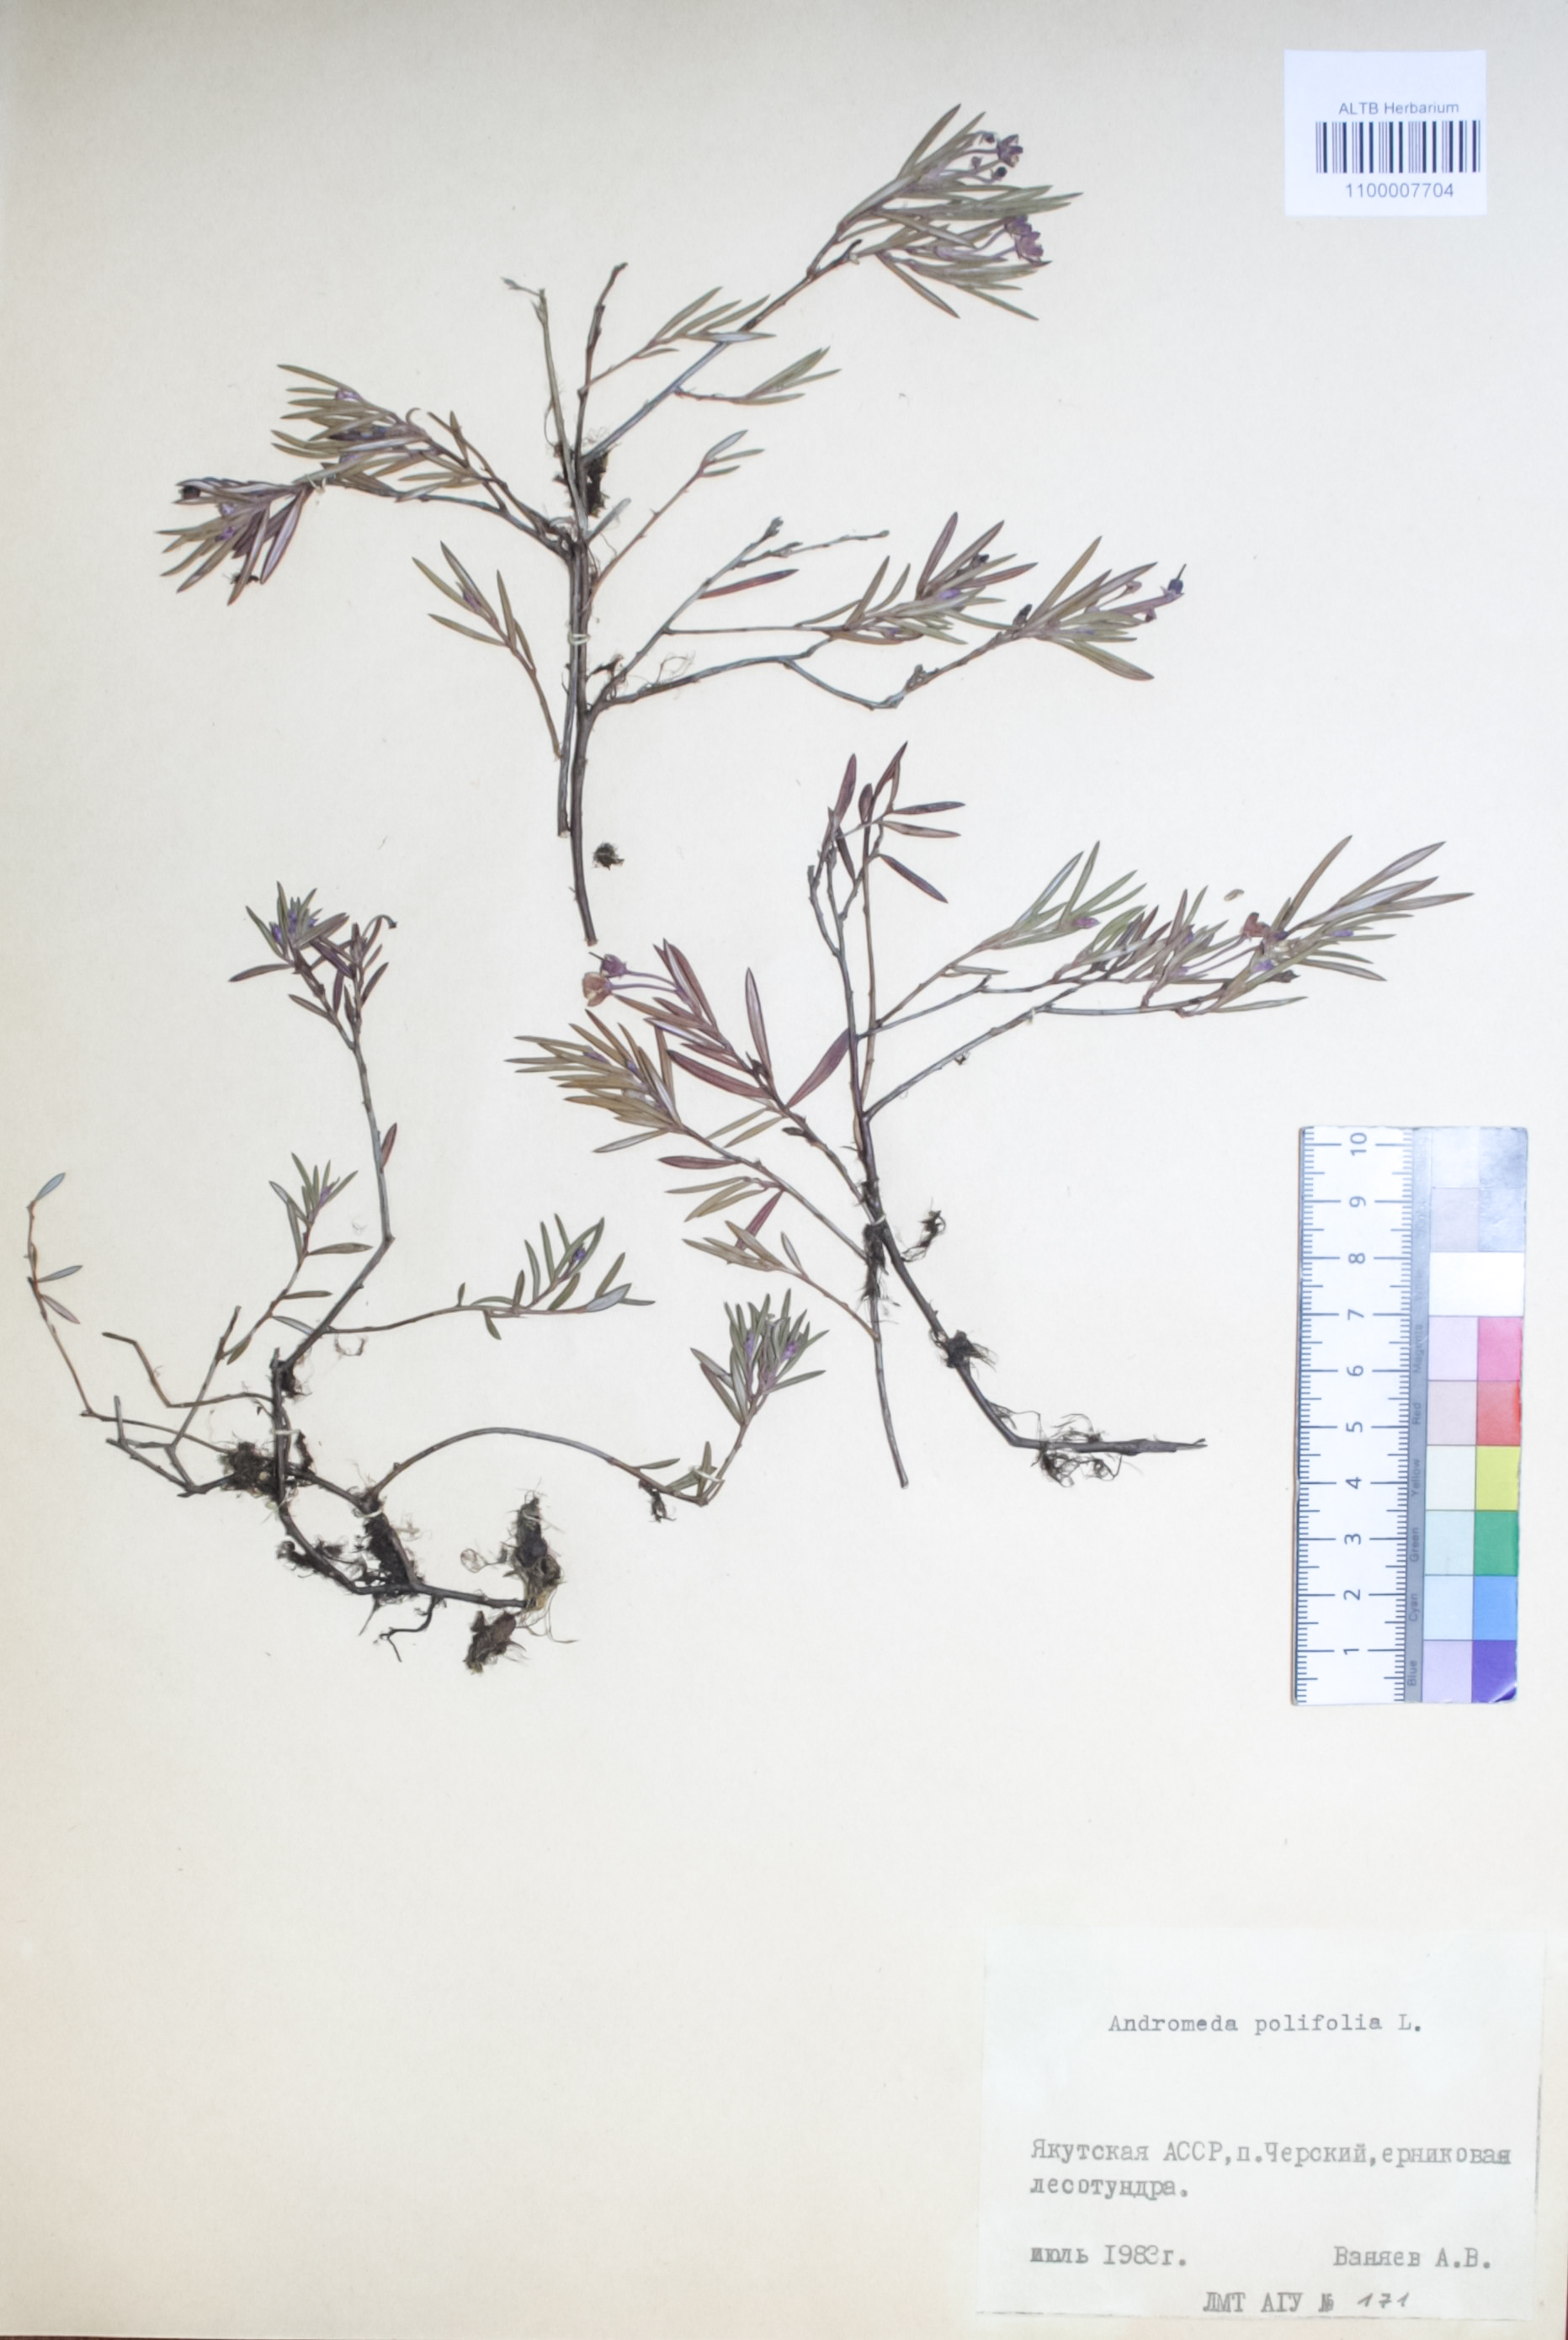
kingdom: Plantae
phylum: Tracheophyta
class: Magnoliopsida
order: Ericales
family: Ericaceae
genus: Andromeda
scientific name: Andromeda polifolia
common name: Bog-rosemary
